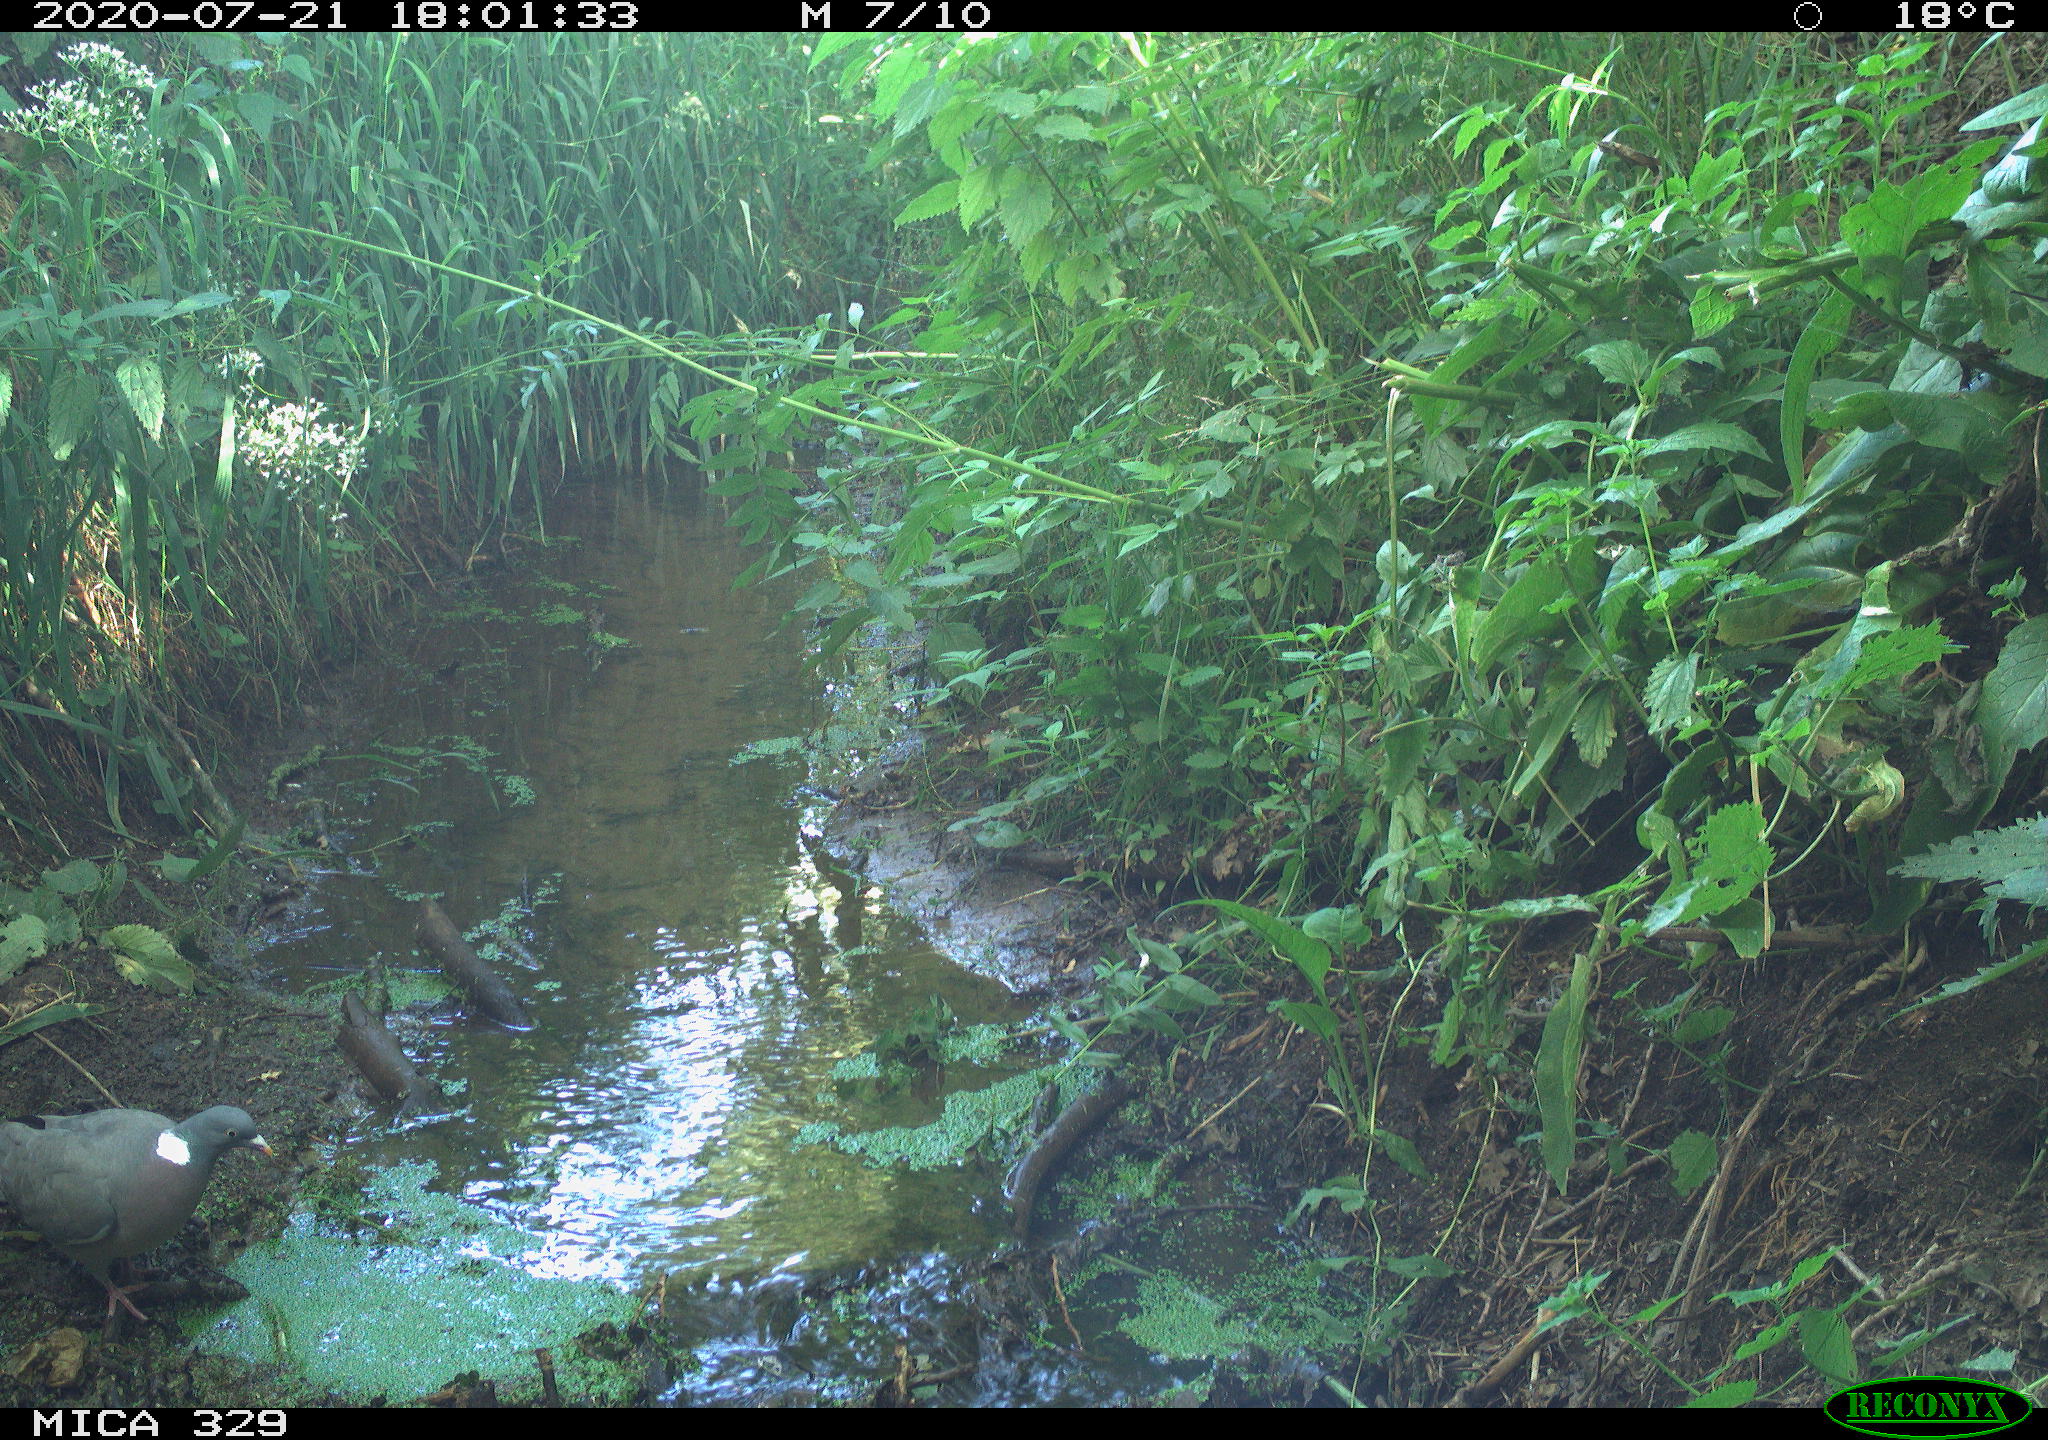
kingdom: Animalia
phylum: Chordata
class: Aves
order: Columbiformes
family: Columbidae
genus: Columba
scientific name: Columba palumbus
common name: Common wood pigeon
